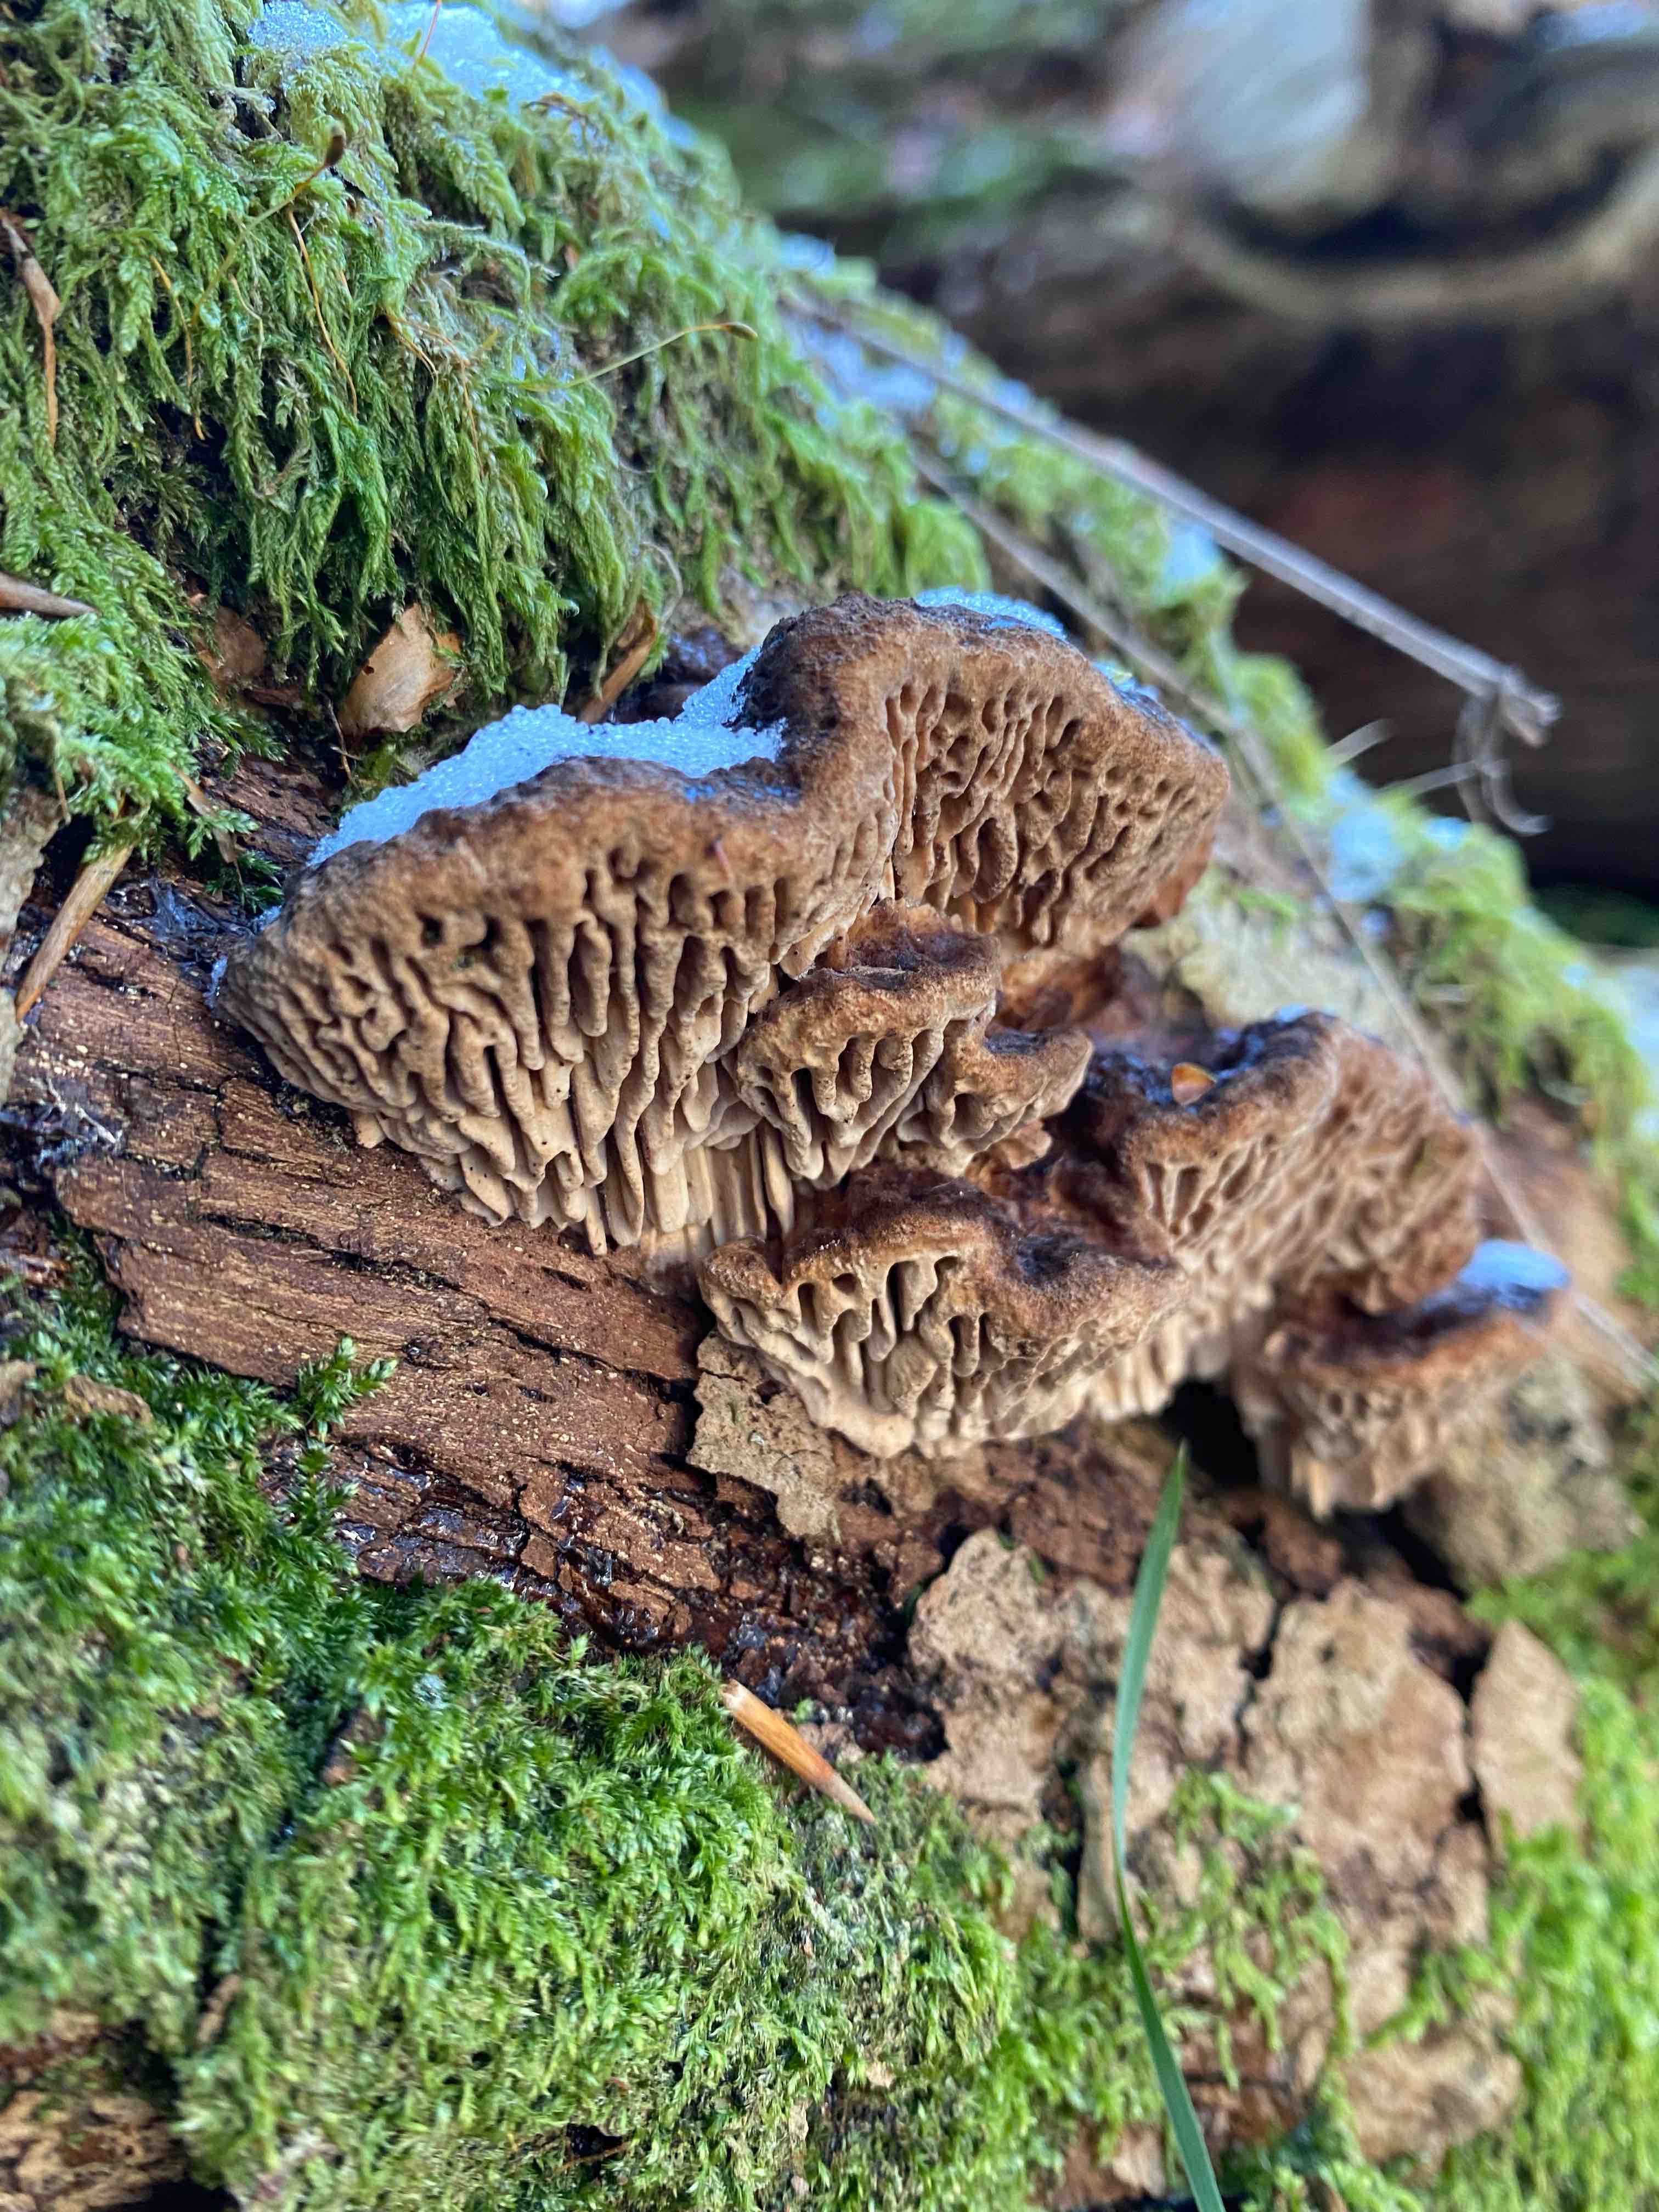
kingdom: Fungi
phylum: Basidiomycota
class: Agaricomycetes
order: Polyporales
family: Fomitopsidaceae
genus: Daedalea
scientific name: Daedalea quercina
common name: ege-labyrintsvamp
